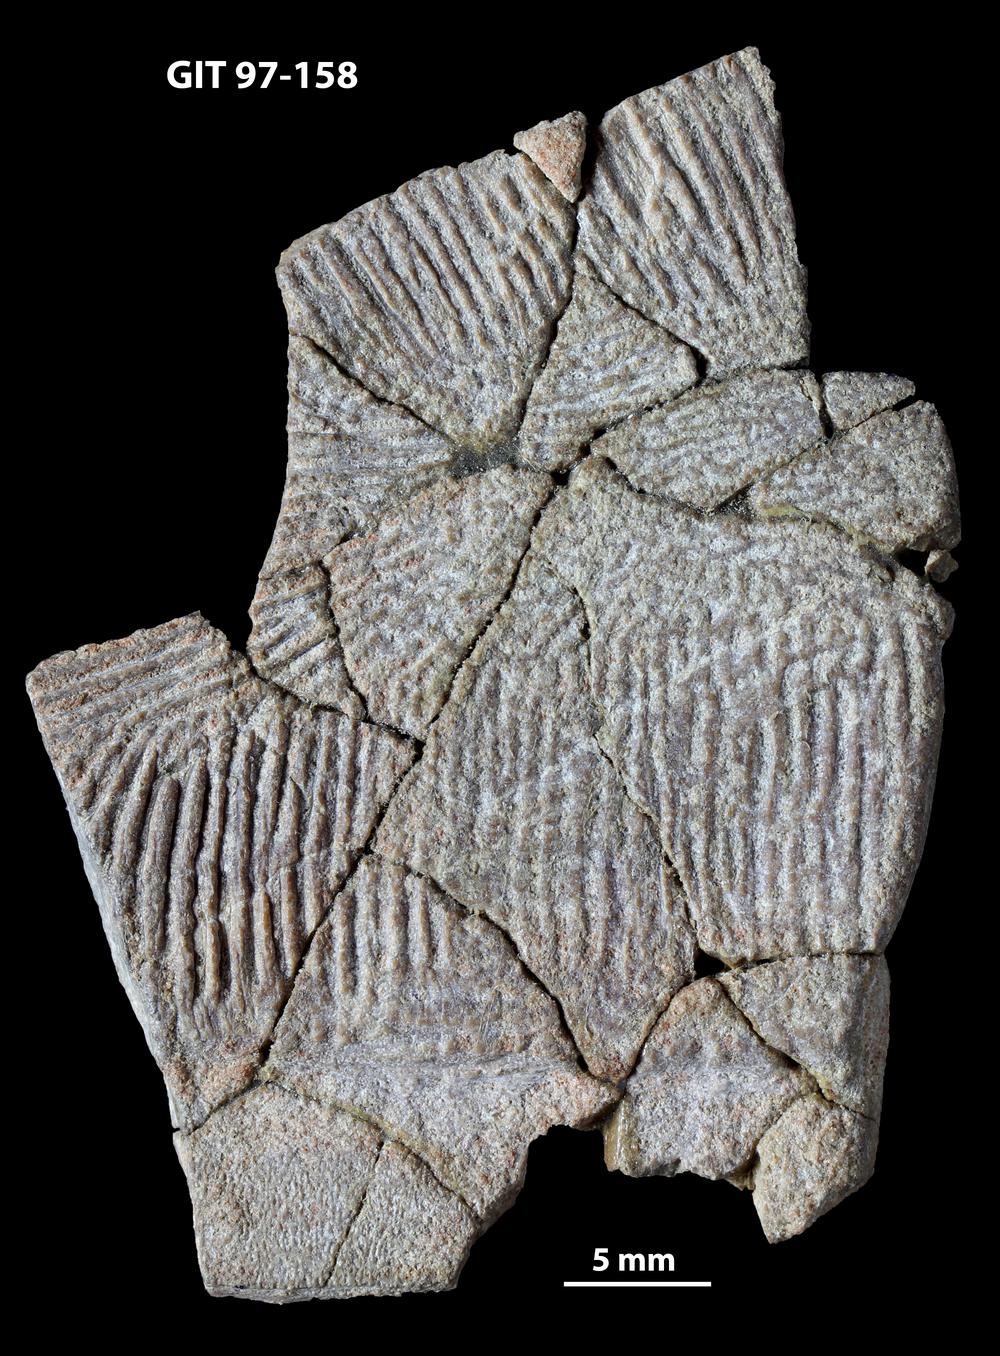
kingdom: Animalia
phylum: Chordata
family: Holonematidae
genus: Holonema
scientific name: Holonema
